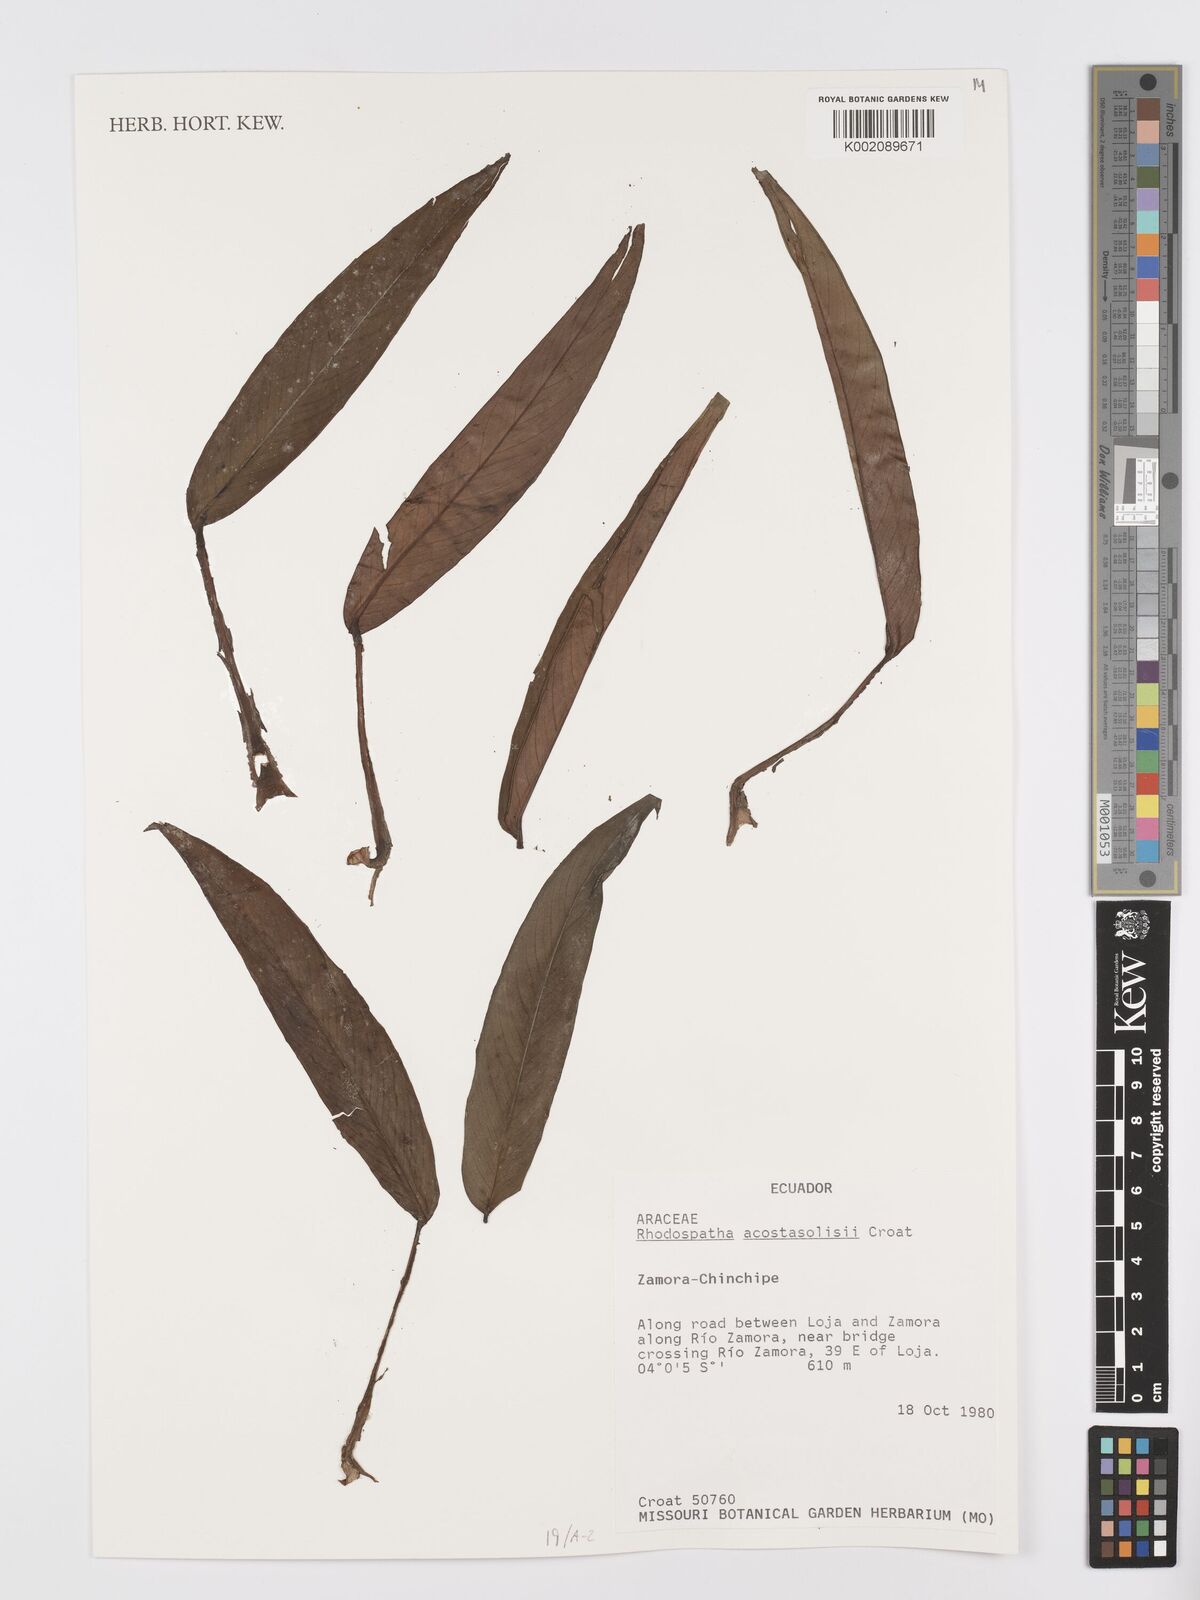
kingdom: Plantae
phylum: Tracheophyta
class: Liliopsida
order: Alismatales
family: Araceae
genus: Rhodospatha
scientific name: Rhodospatha acosta-solisii
